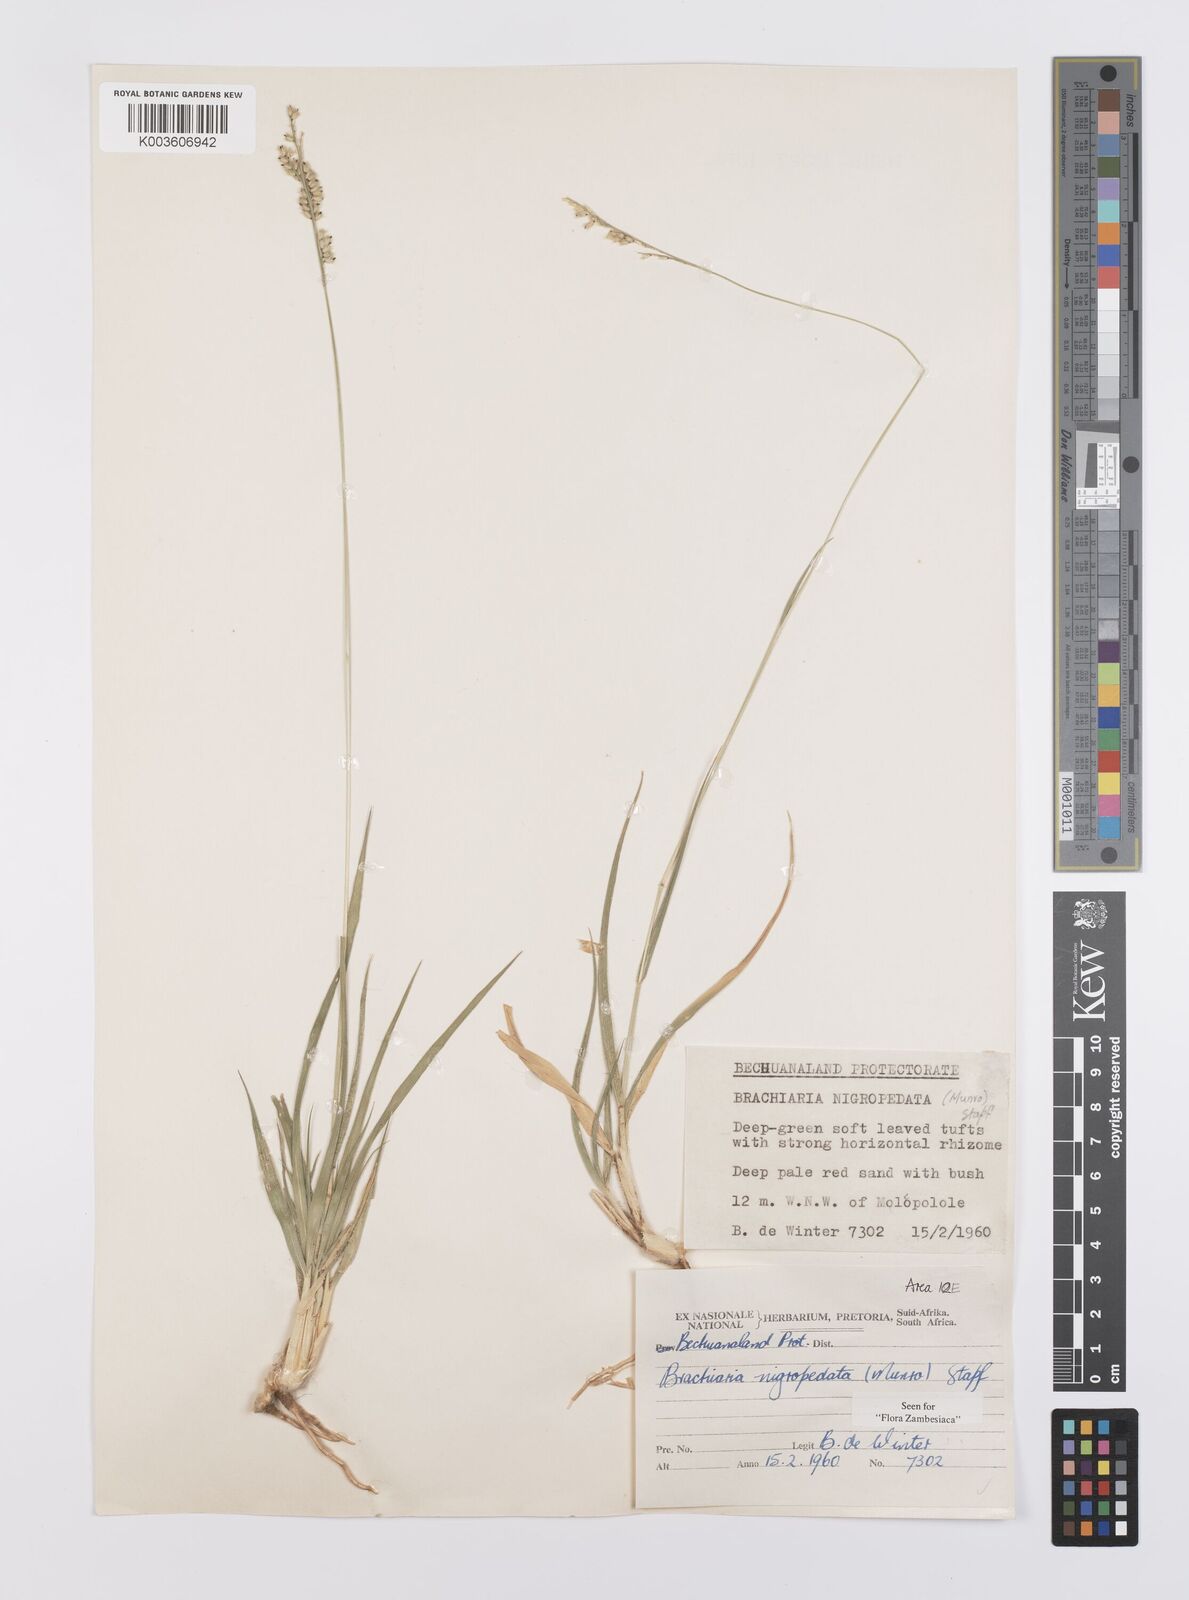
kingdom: Plantae
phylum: Tracheophyta
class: Liliopsida
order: Poales
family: Poaceae
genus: Urochloa
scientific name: Urochloa nigropedata
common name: Spotted signal grass
